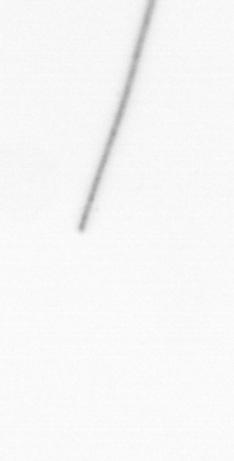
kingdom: Chromista
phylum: Ochrophyta
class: Bacillariophyceae
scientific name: Bacillariophyceae
